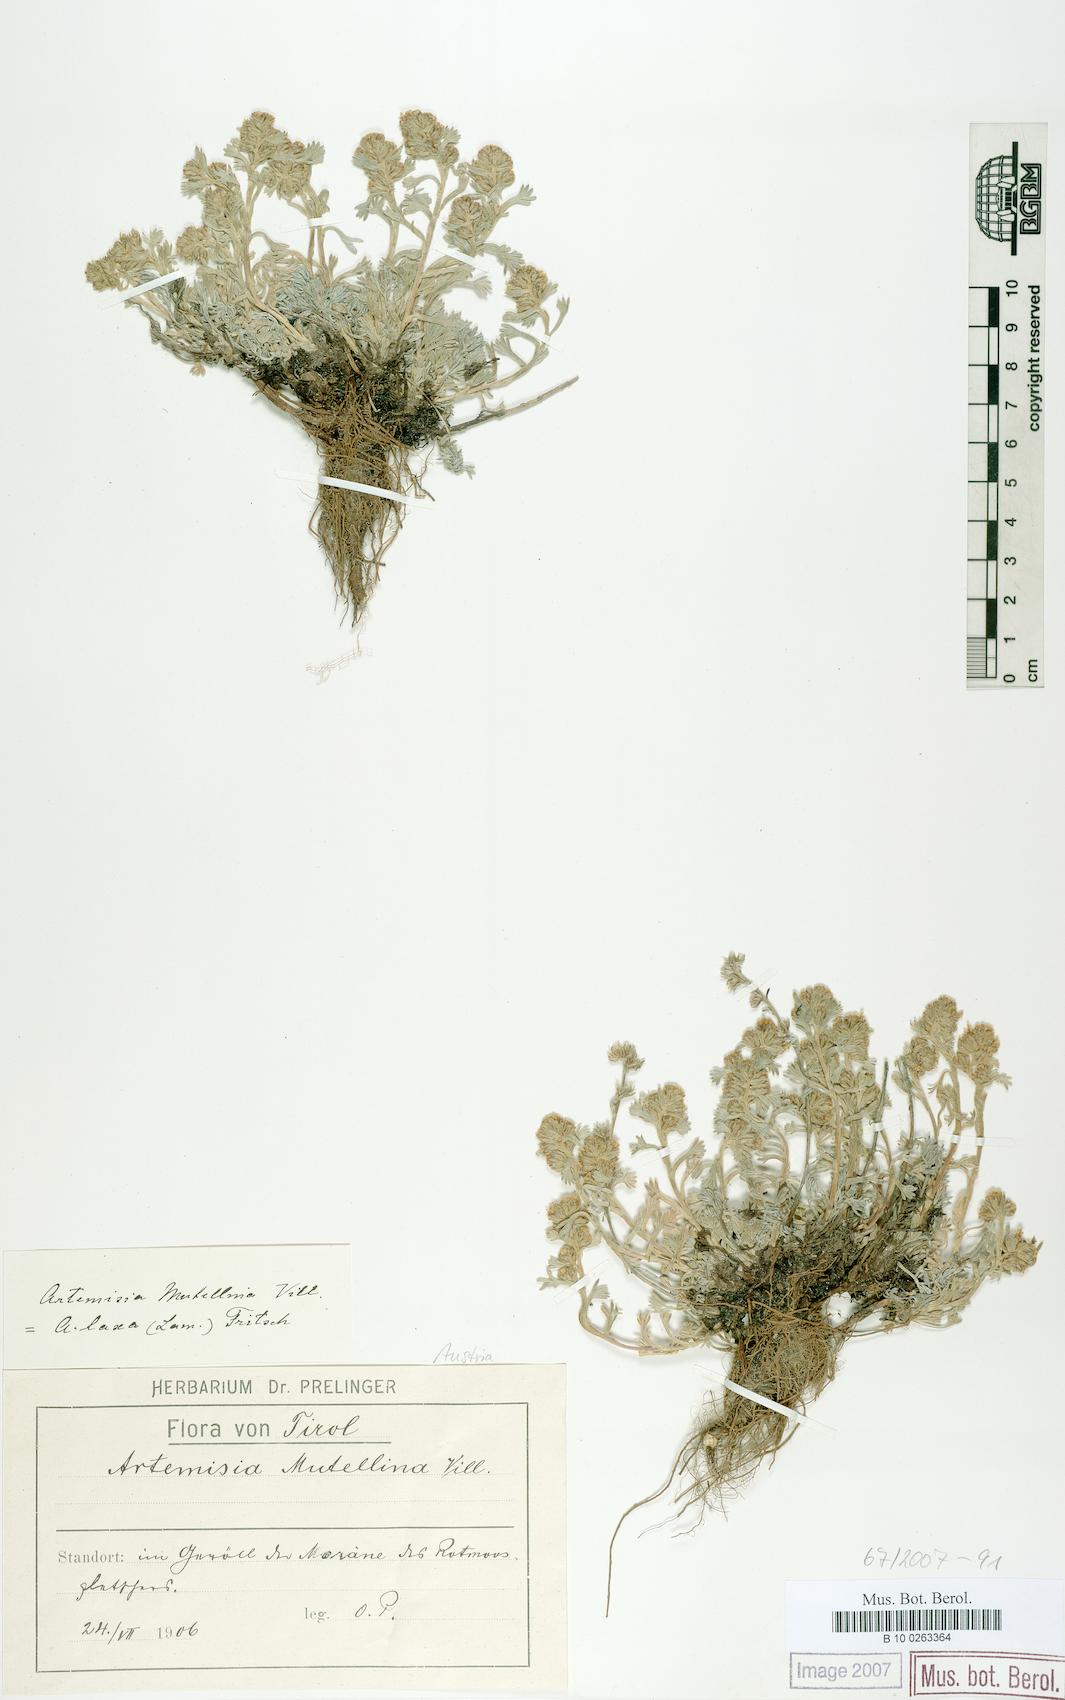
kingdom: Plantae
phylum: Tracheophyta
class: Magnoliopsida
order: Asterales
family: Asteraceae
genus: Artemisia
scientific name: Artemisia mutellina
